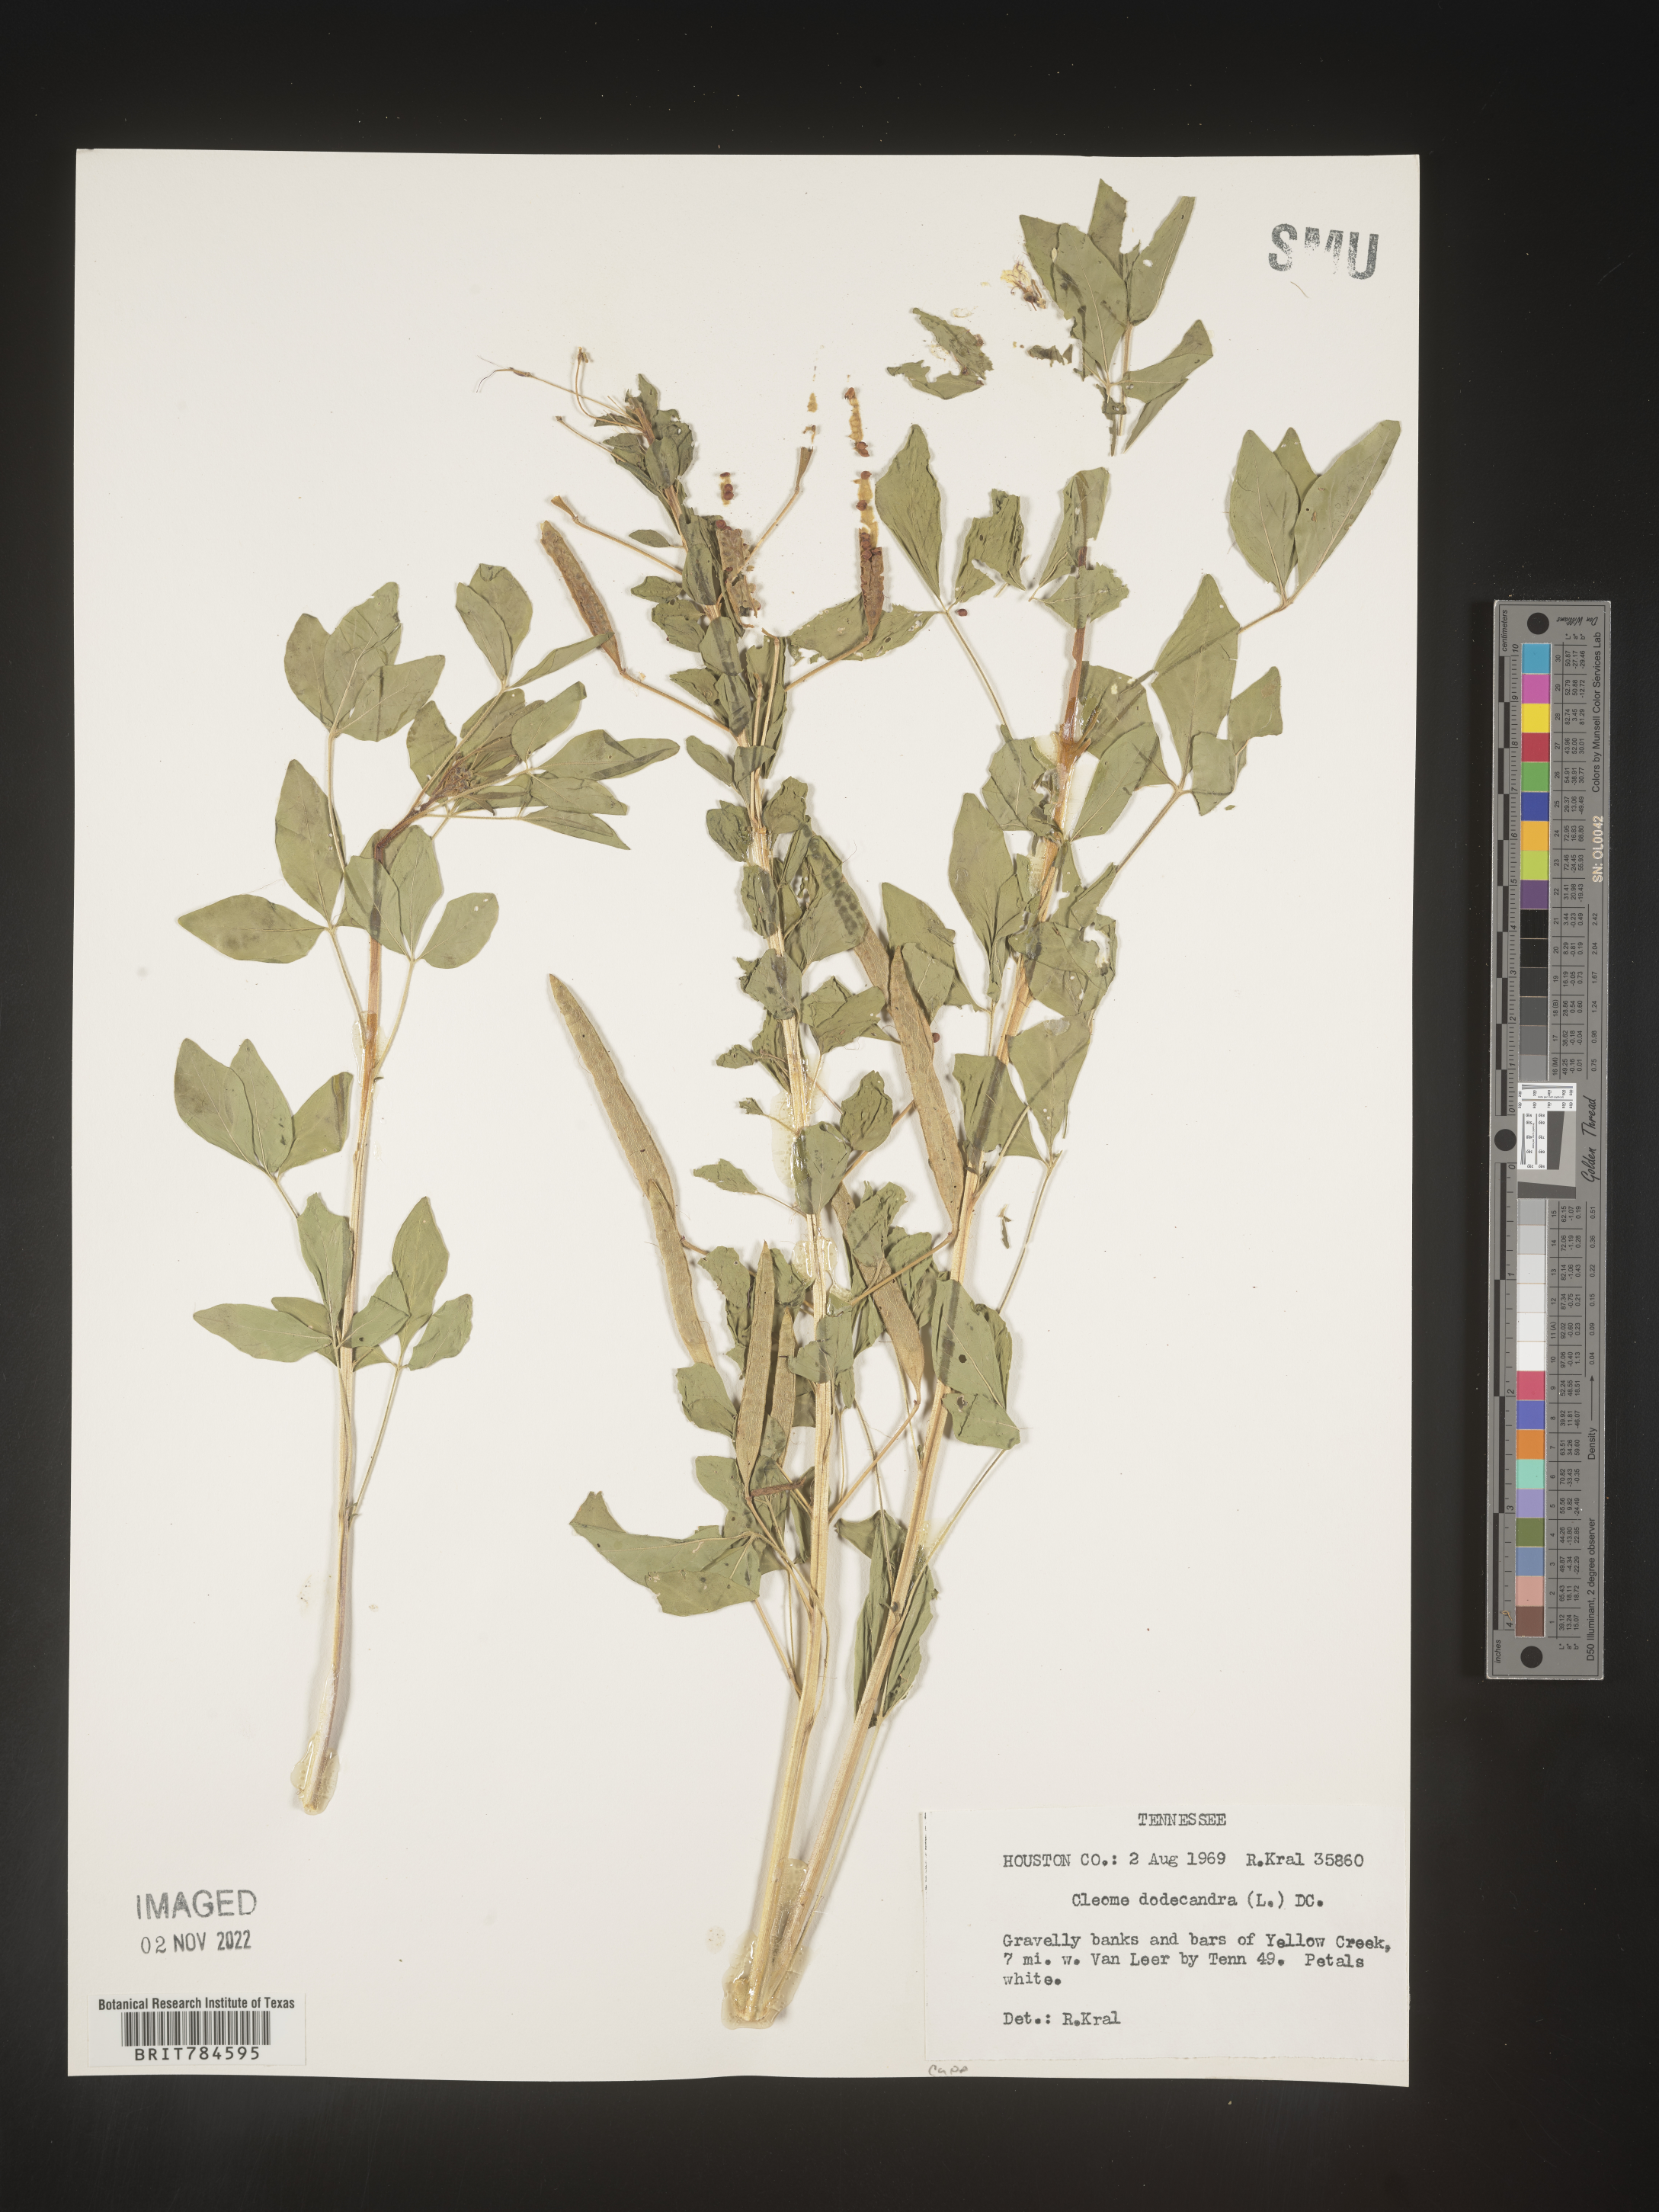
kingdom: Plantae
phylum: Tracheophyta
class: Magnoliopsida
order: Brassicales
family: Cleomaceae
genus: Polanisia
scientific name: Polanisia dodecandra
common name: Clammyweed
